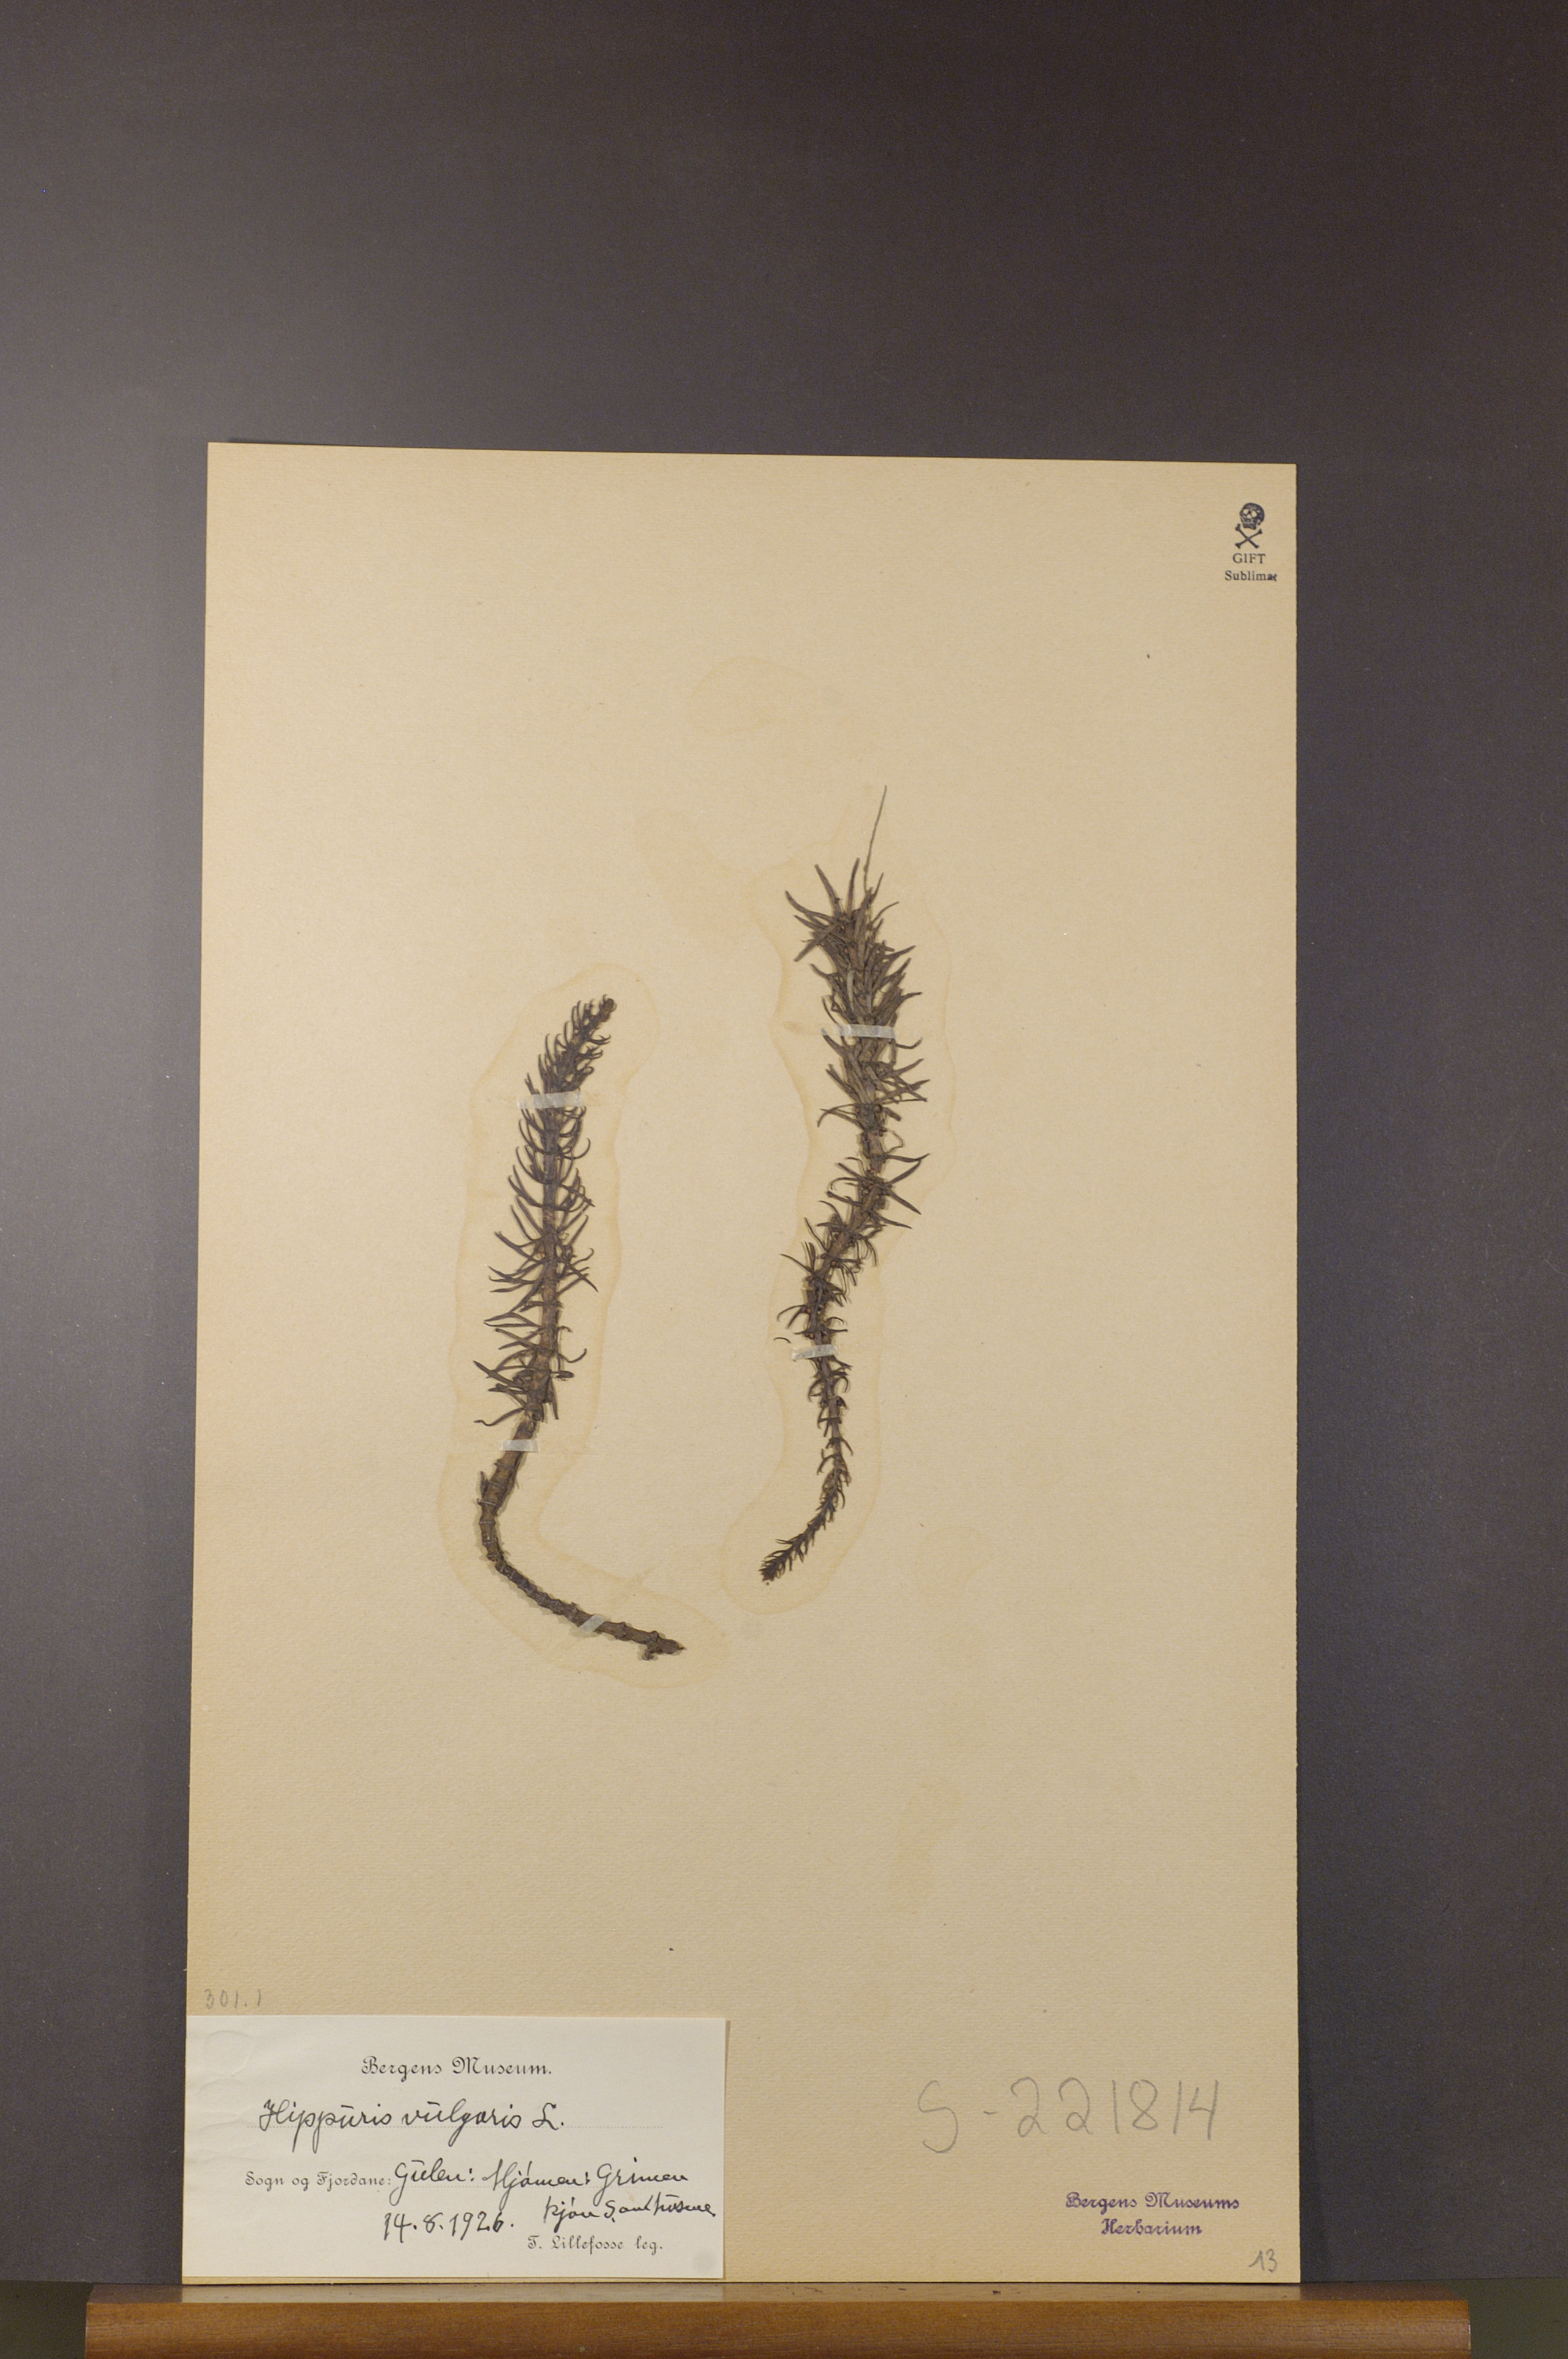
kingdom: Plantae
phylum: Tracheophyta
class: Magnoliopsida
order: Lamiales
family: Plantaginaceae
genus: Hippuris
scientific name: Hippuris vulgaris
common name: Mare's-tail
